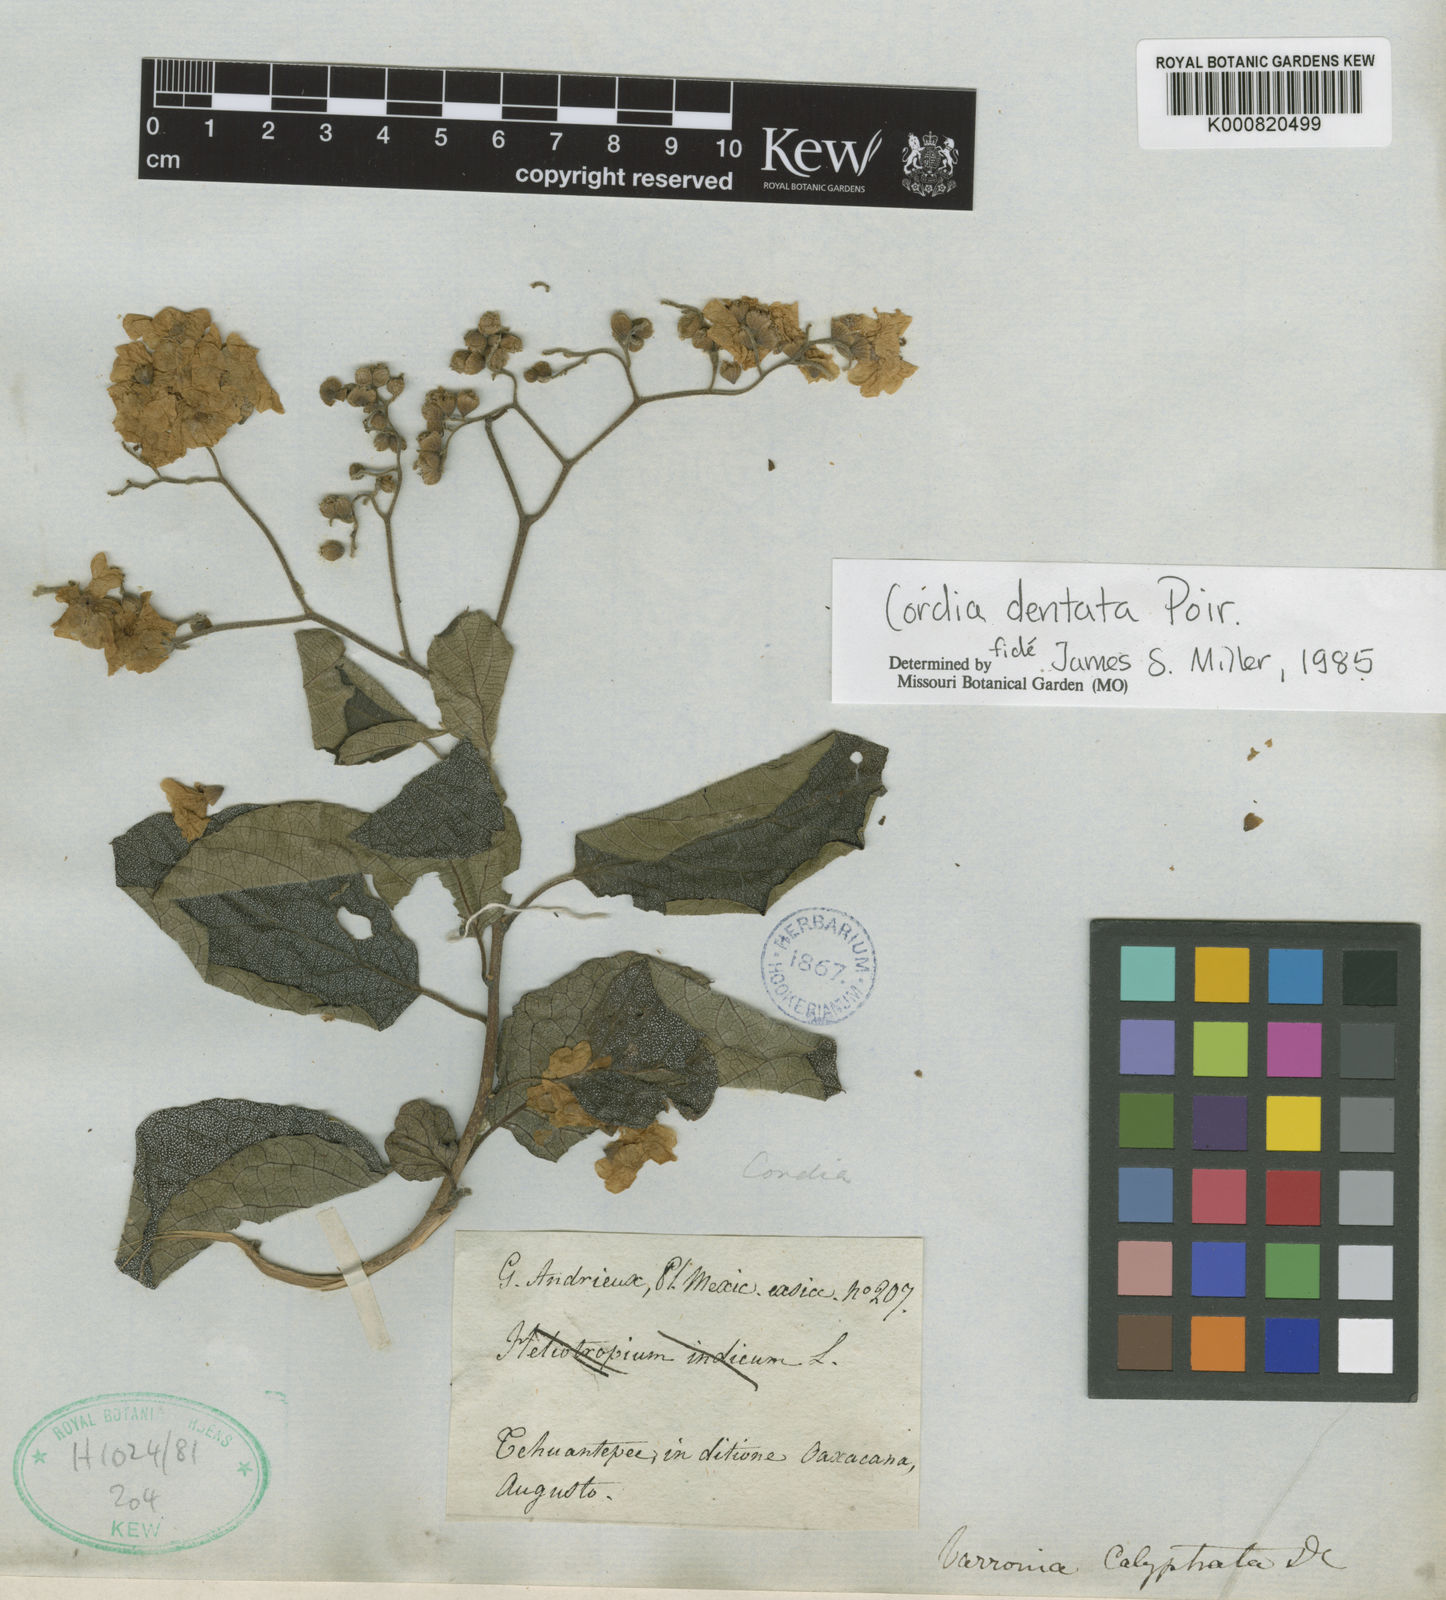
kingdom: Plantae
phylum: Tracheophyta
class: Magnoliopsida
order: Boraginales
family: Cordiaceae
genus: Cordia
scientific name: Cordia dentata
